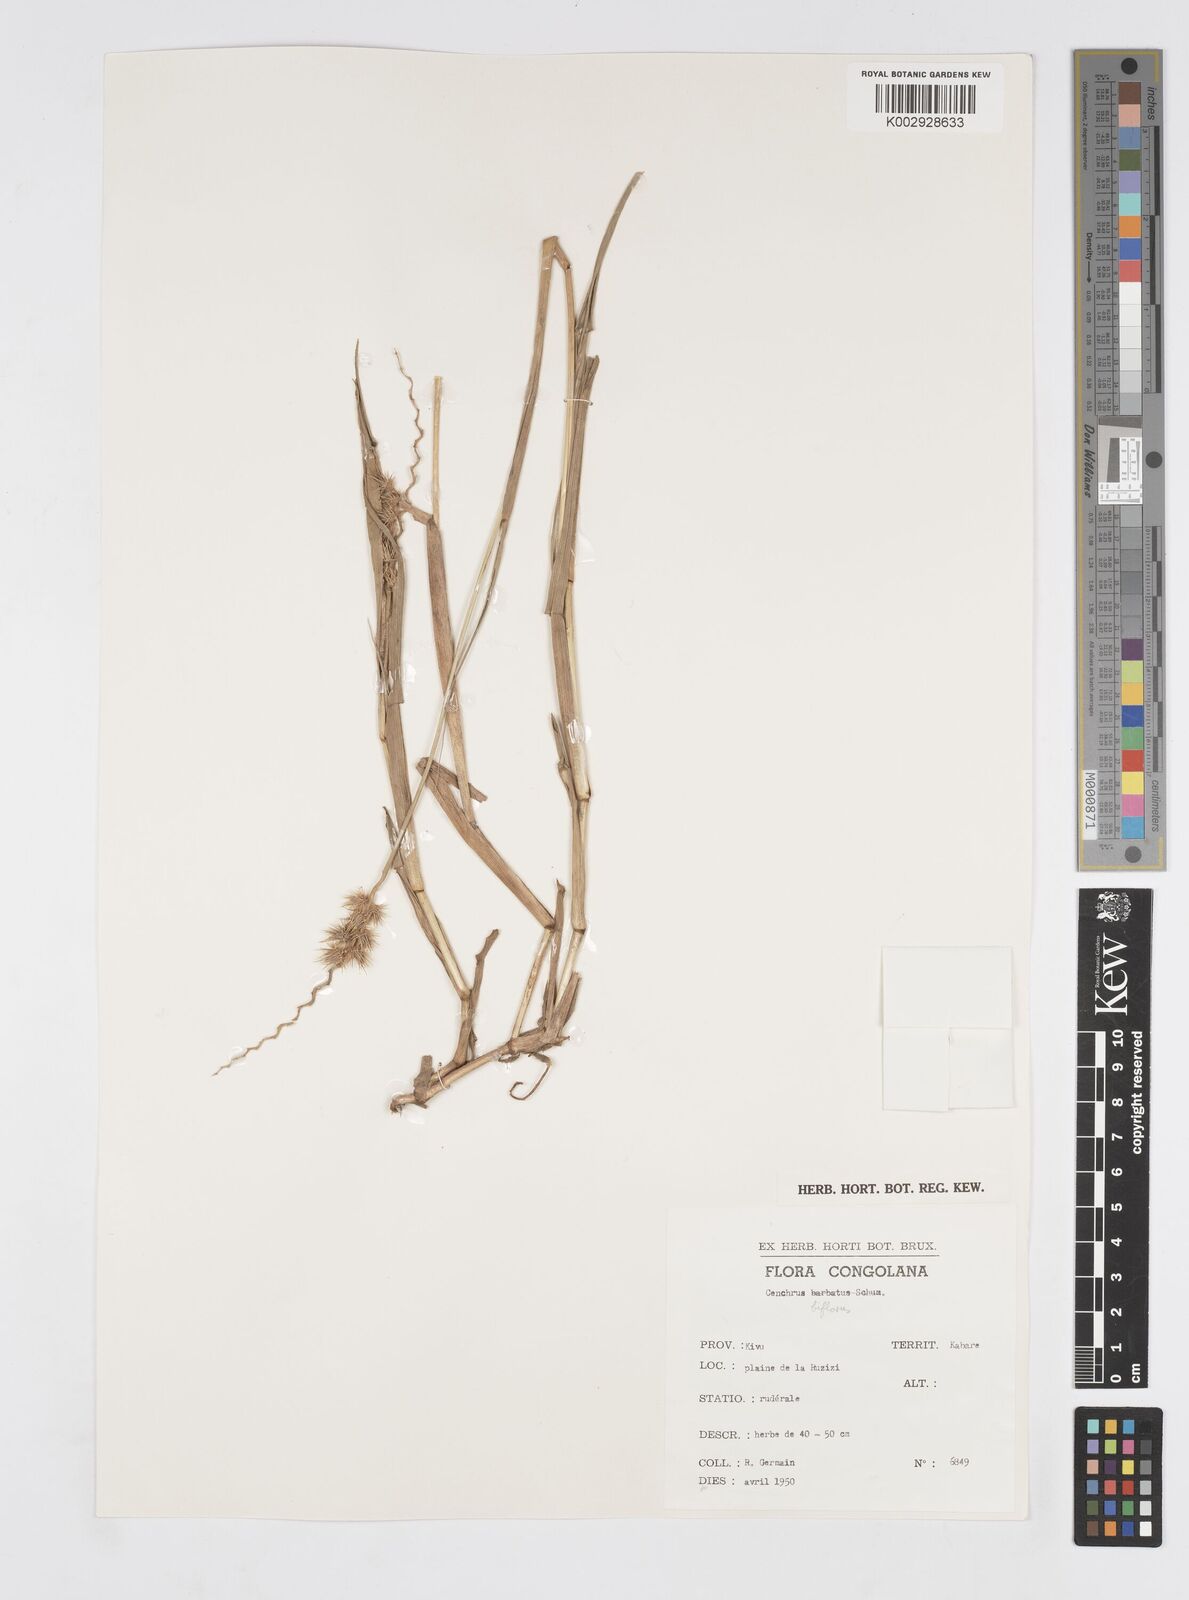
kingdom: Plantae
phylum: Tracheophyta
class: Liliopsida
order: Poales
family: Poaceae
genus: Cenchrus
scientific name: Cenchrus biflorus
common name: Indian sandbur
